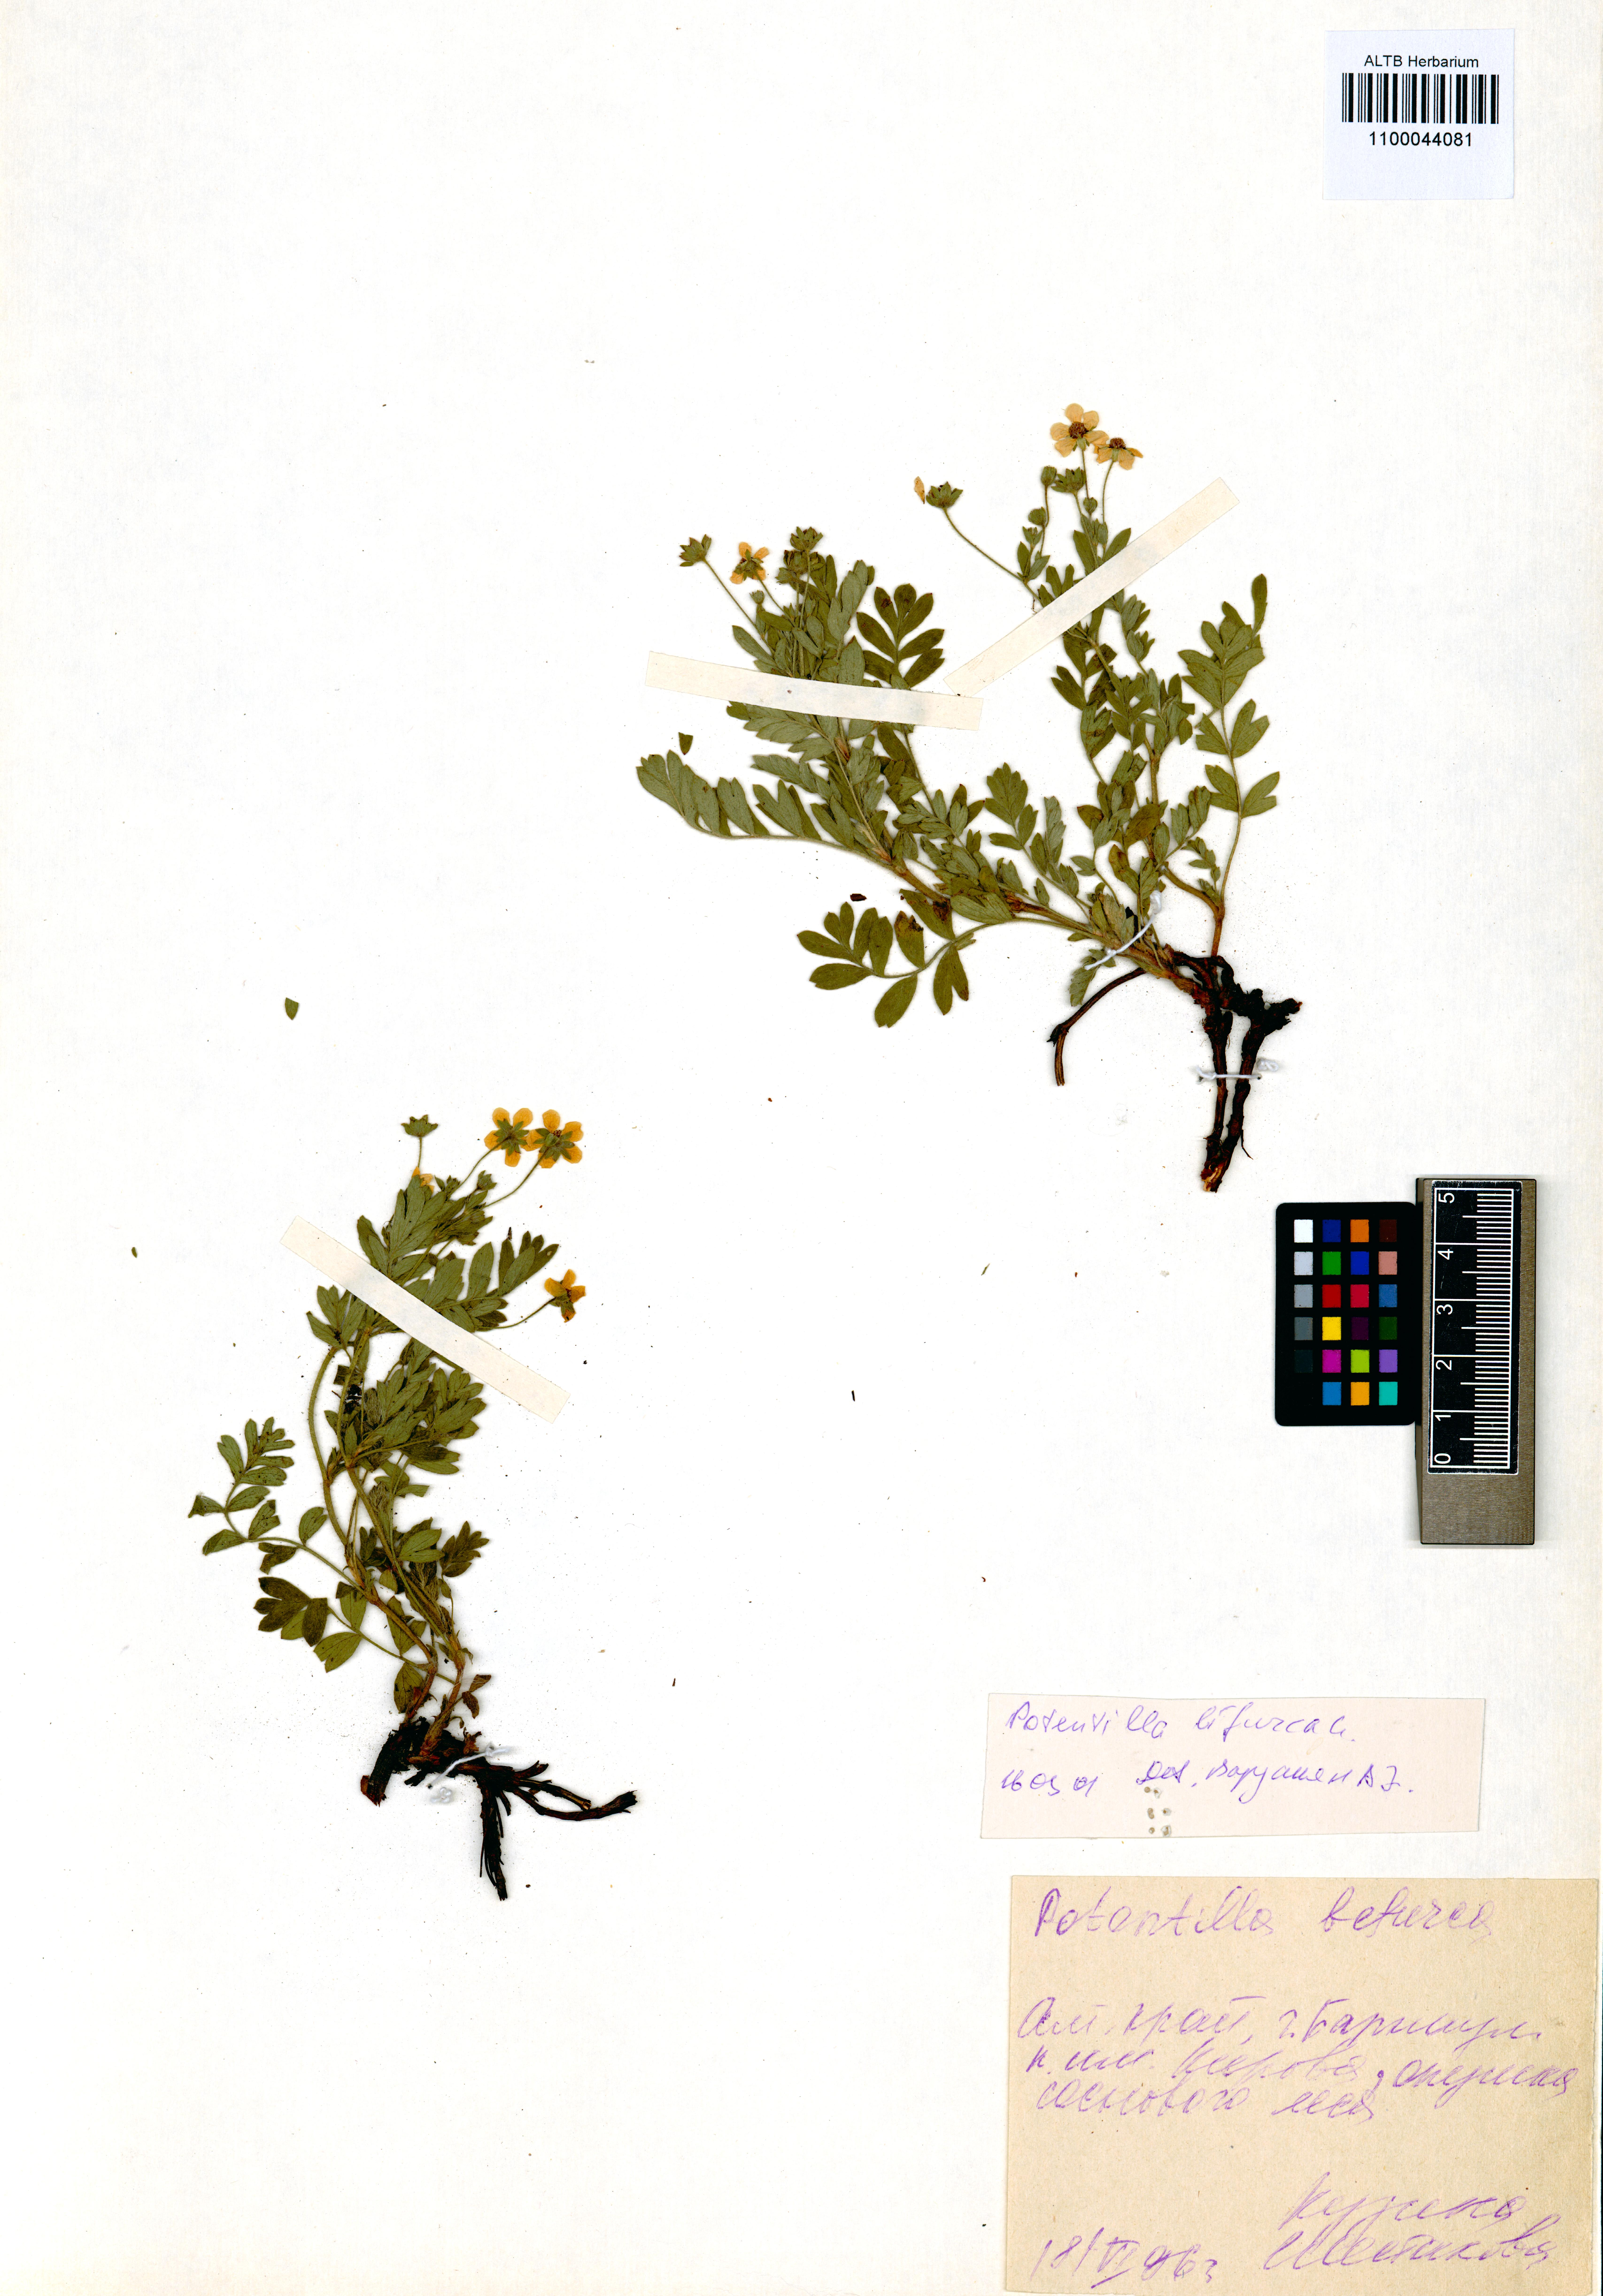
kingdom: Plantae
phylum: Tracheophyta
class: Magnoliopsida
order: Rosales
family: Rosaceae
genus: Sibbaldianthe
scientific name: Sibbaldianthe bifurca
